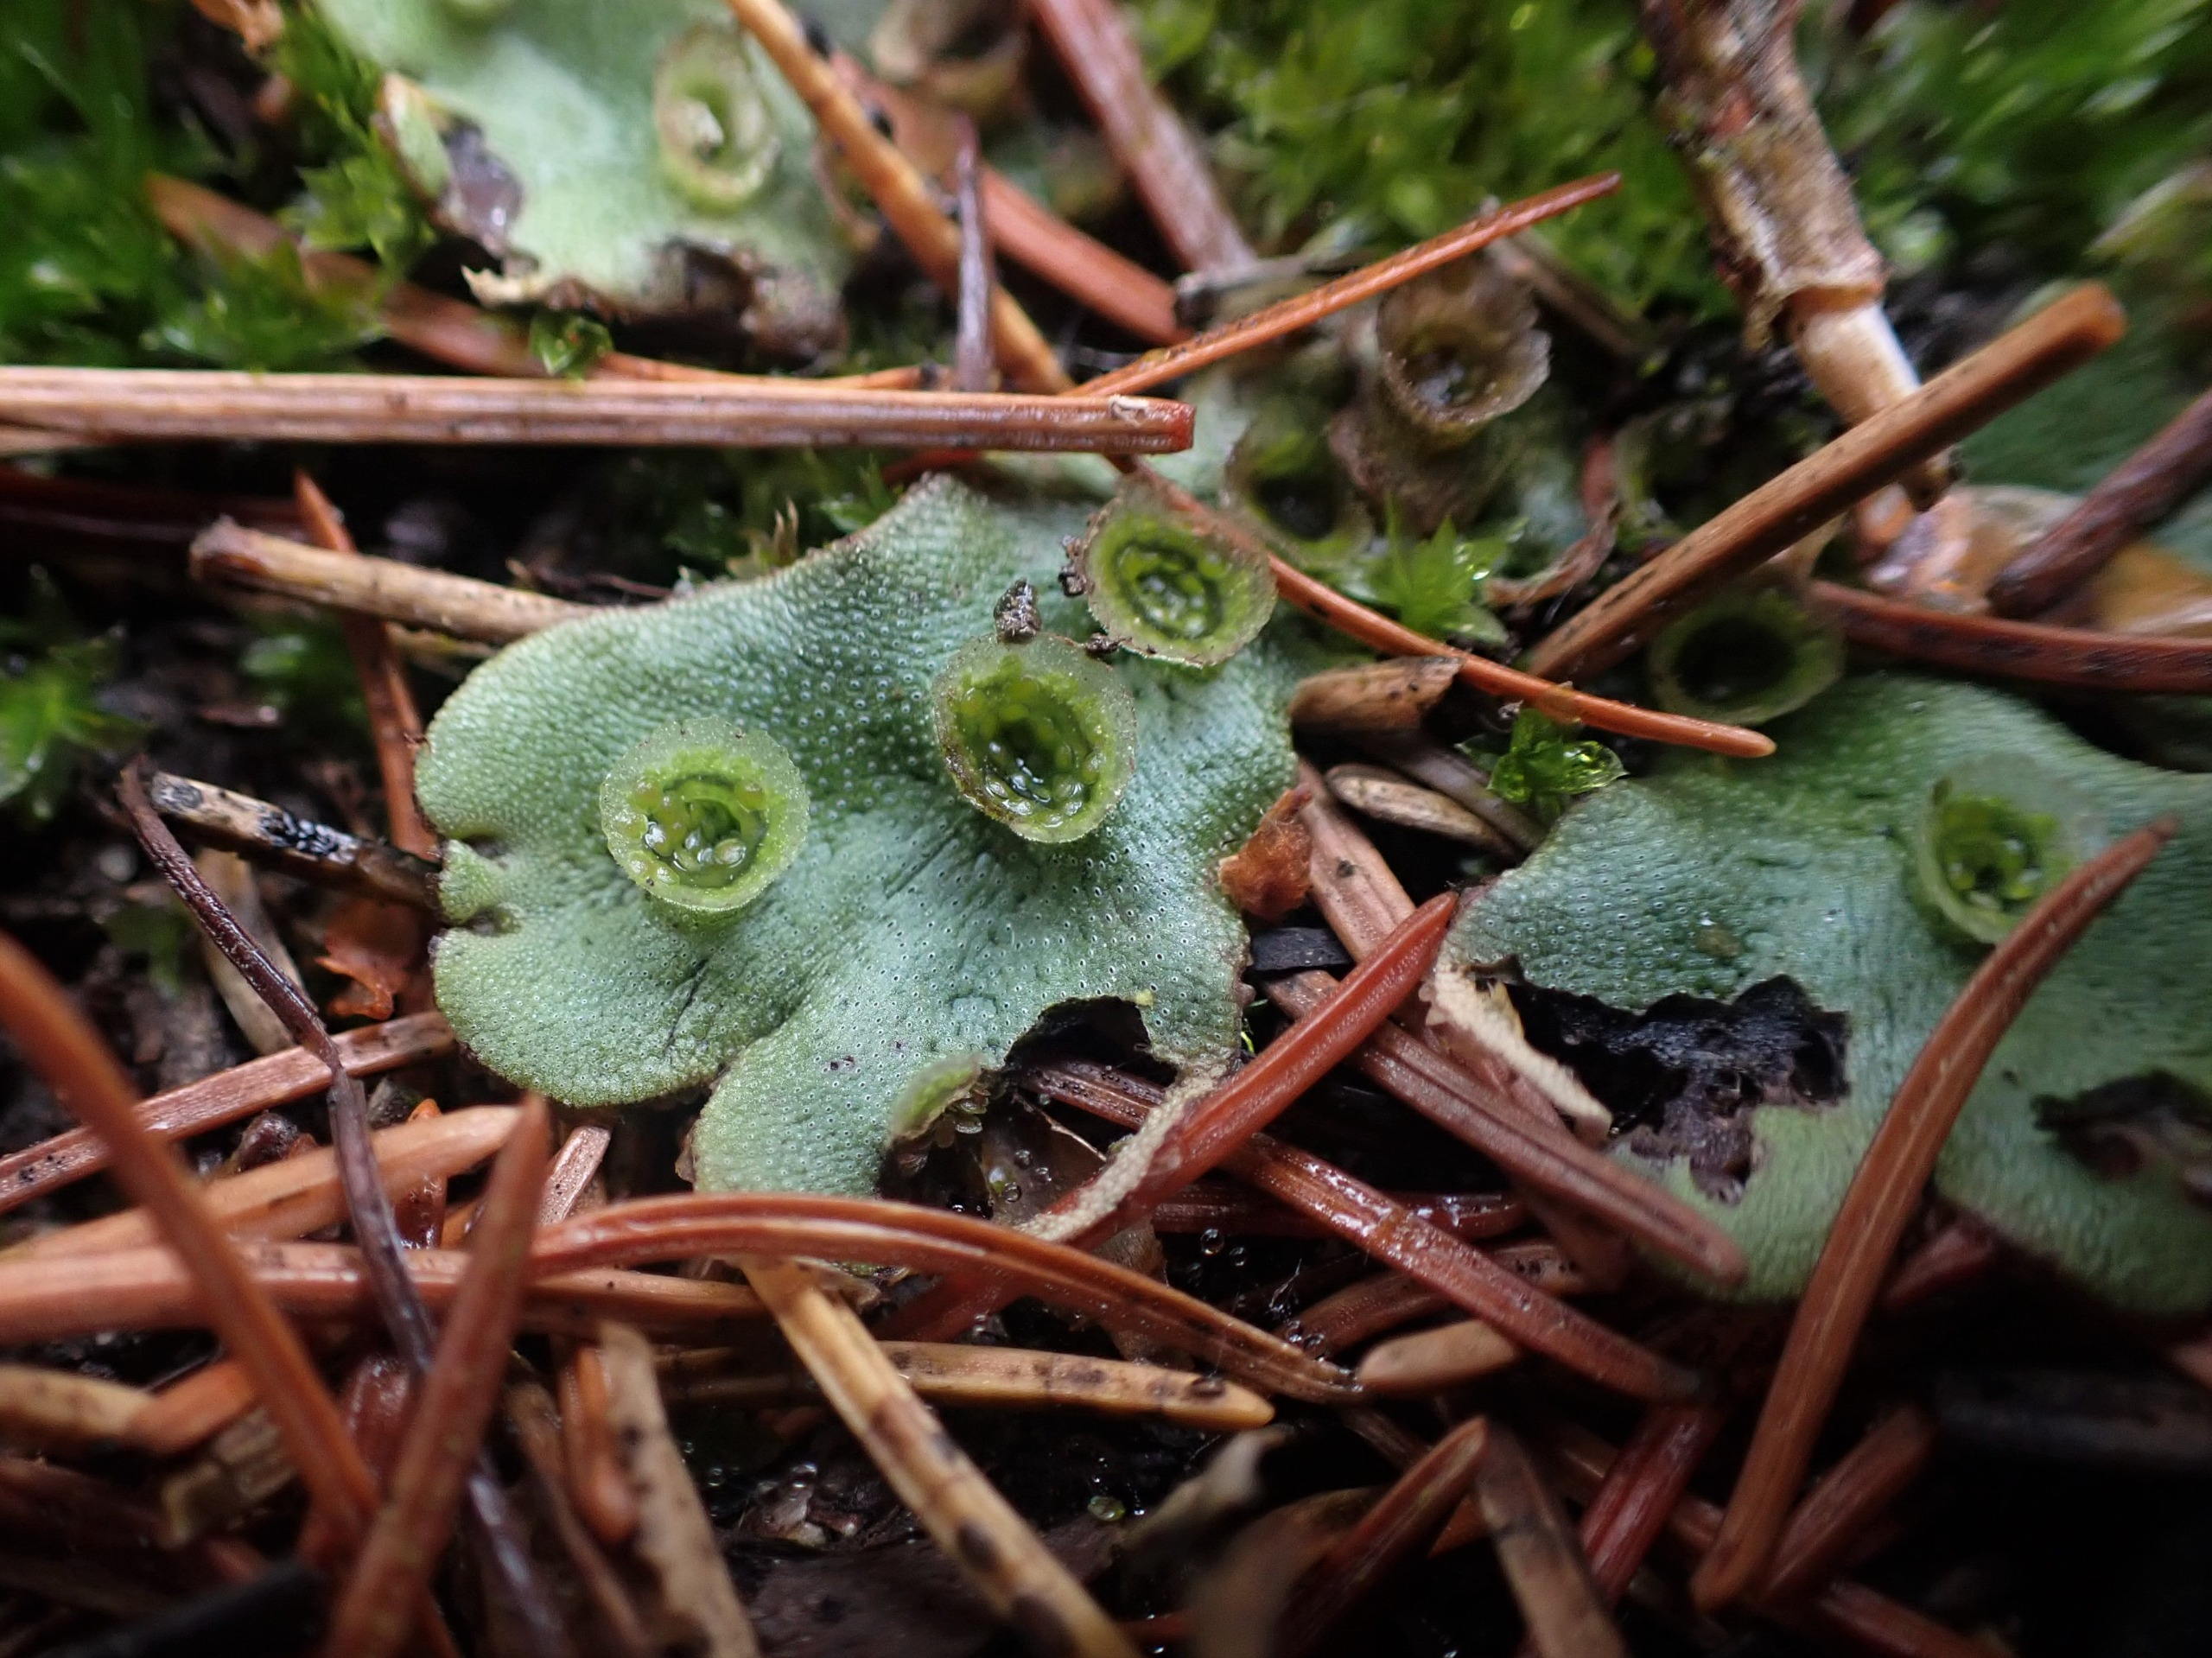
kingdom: Plantae
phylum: Marchantiophyta
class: Marchantiopsida
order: Marchantiales
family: Marchantiaceae
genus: Marchantia
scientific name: Marchantia polymorpha
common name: Almindelig lungemos (underart)
